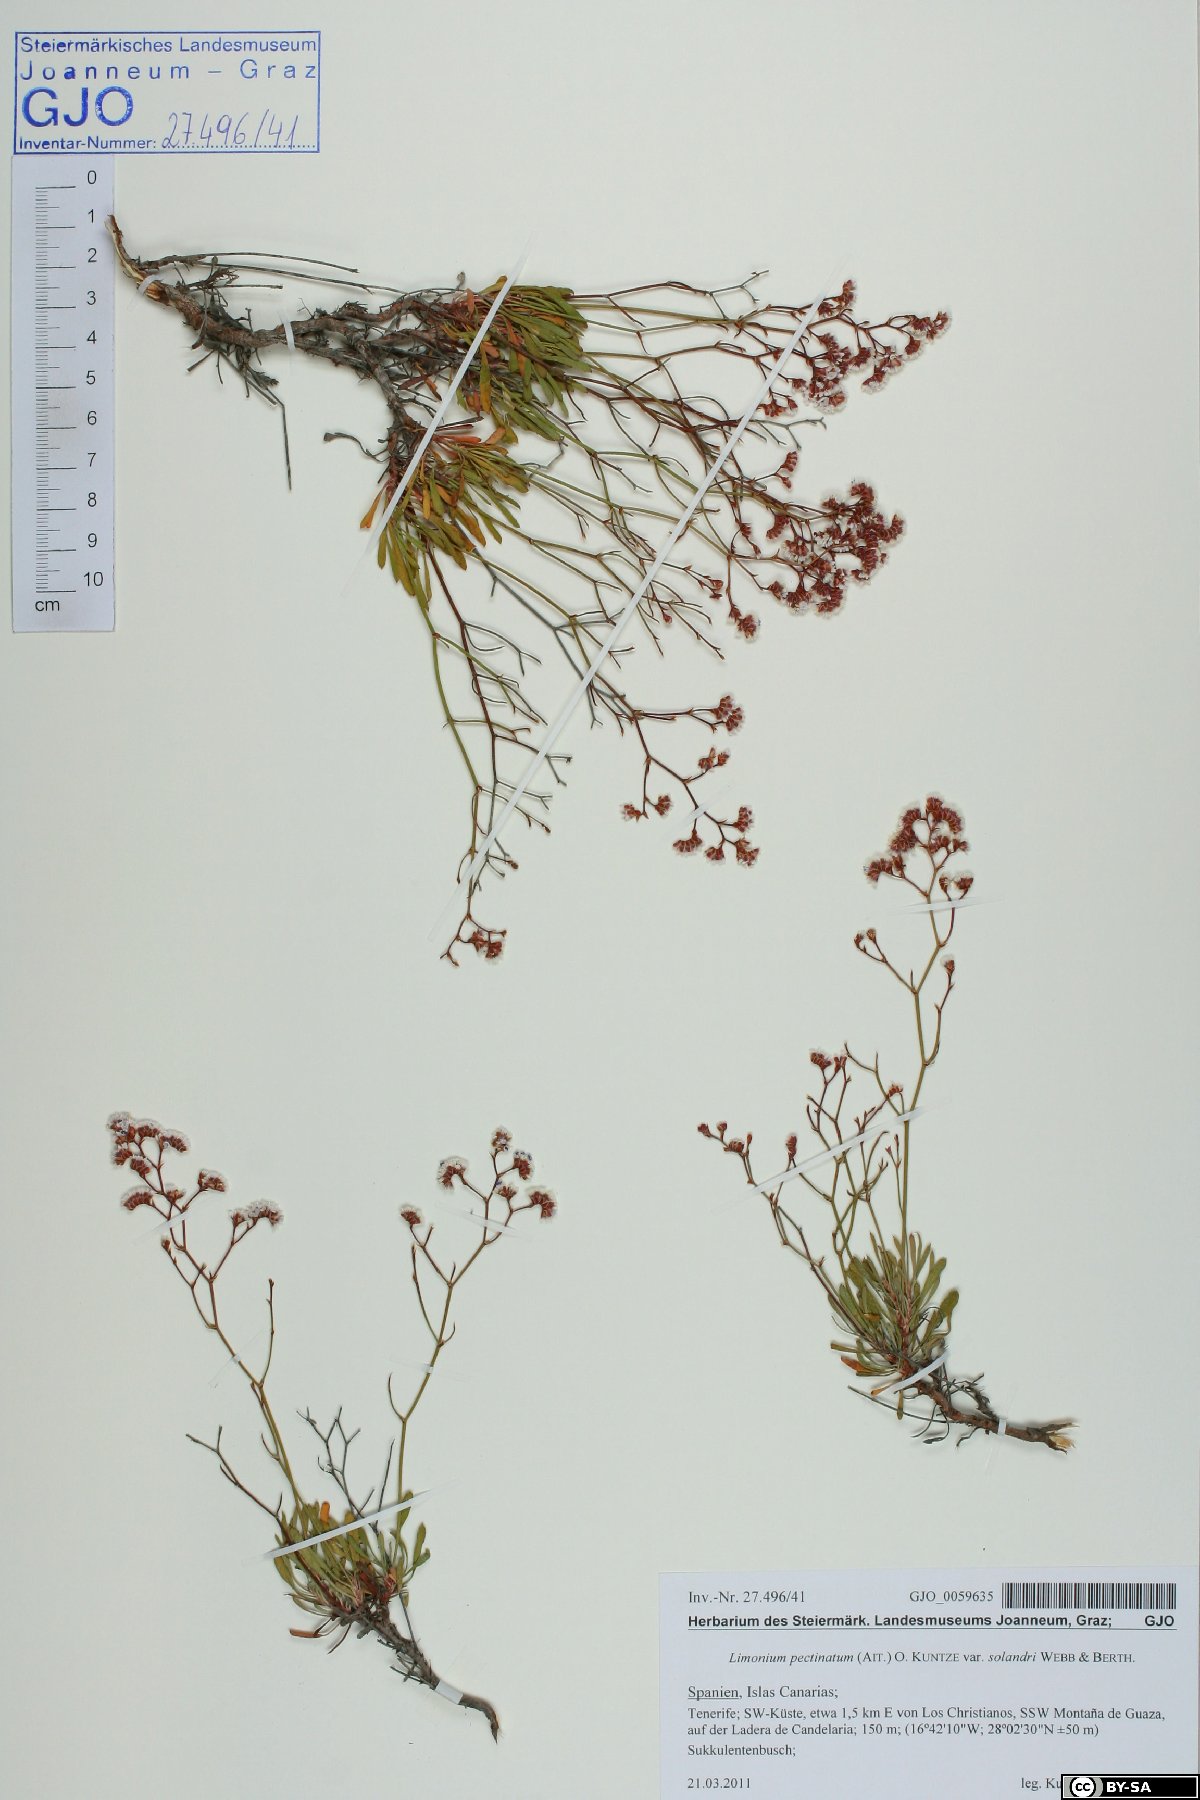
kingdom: Plantae
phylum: Tracheophyta
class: Magnoliopsida
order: Caryophyllales
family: Plumbaginaceae
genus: Limonium
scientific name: Limonium pectinatum
